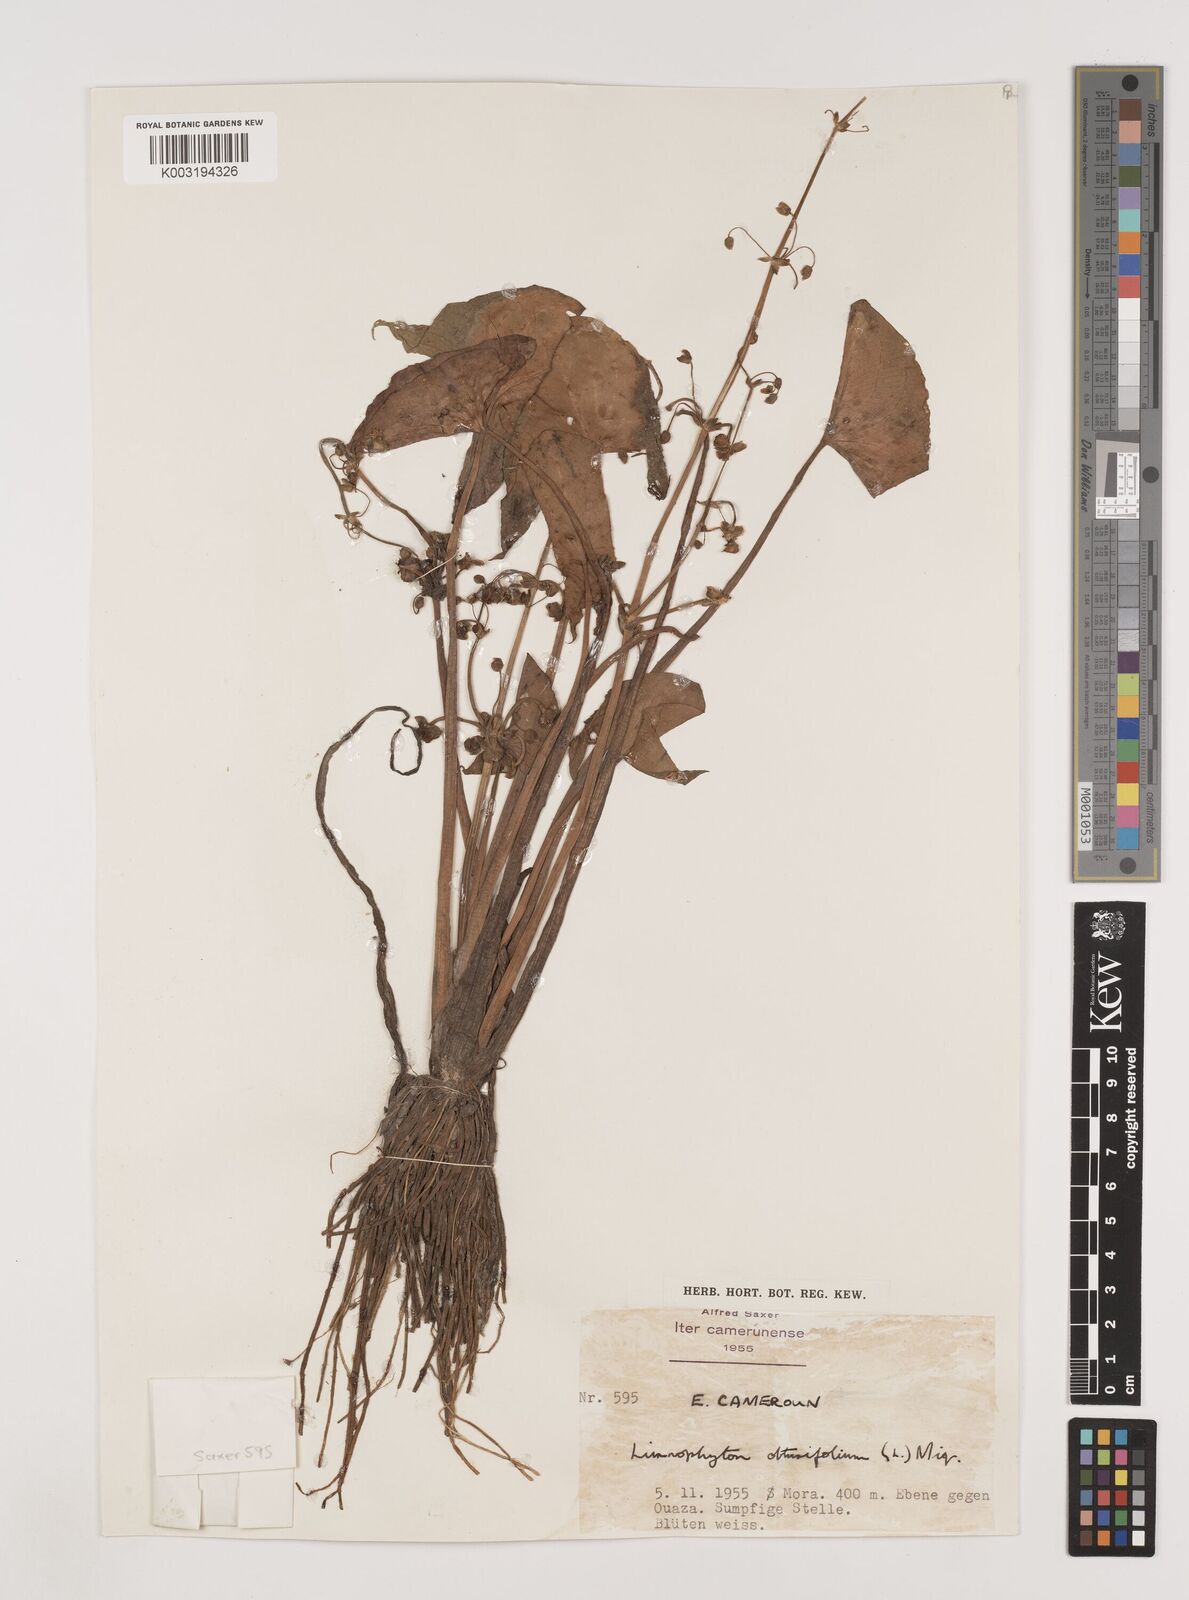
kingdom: Plantae
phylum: Tracheophyta
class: Liliopsida
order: Alismatales
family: Alismataceae
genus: Limnophyton
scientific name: Limnophyton obtusifolium
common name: Arrow head
